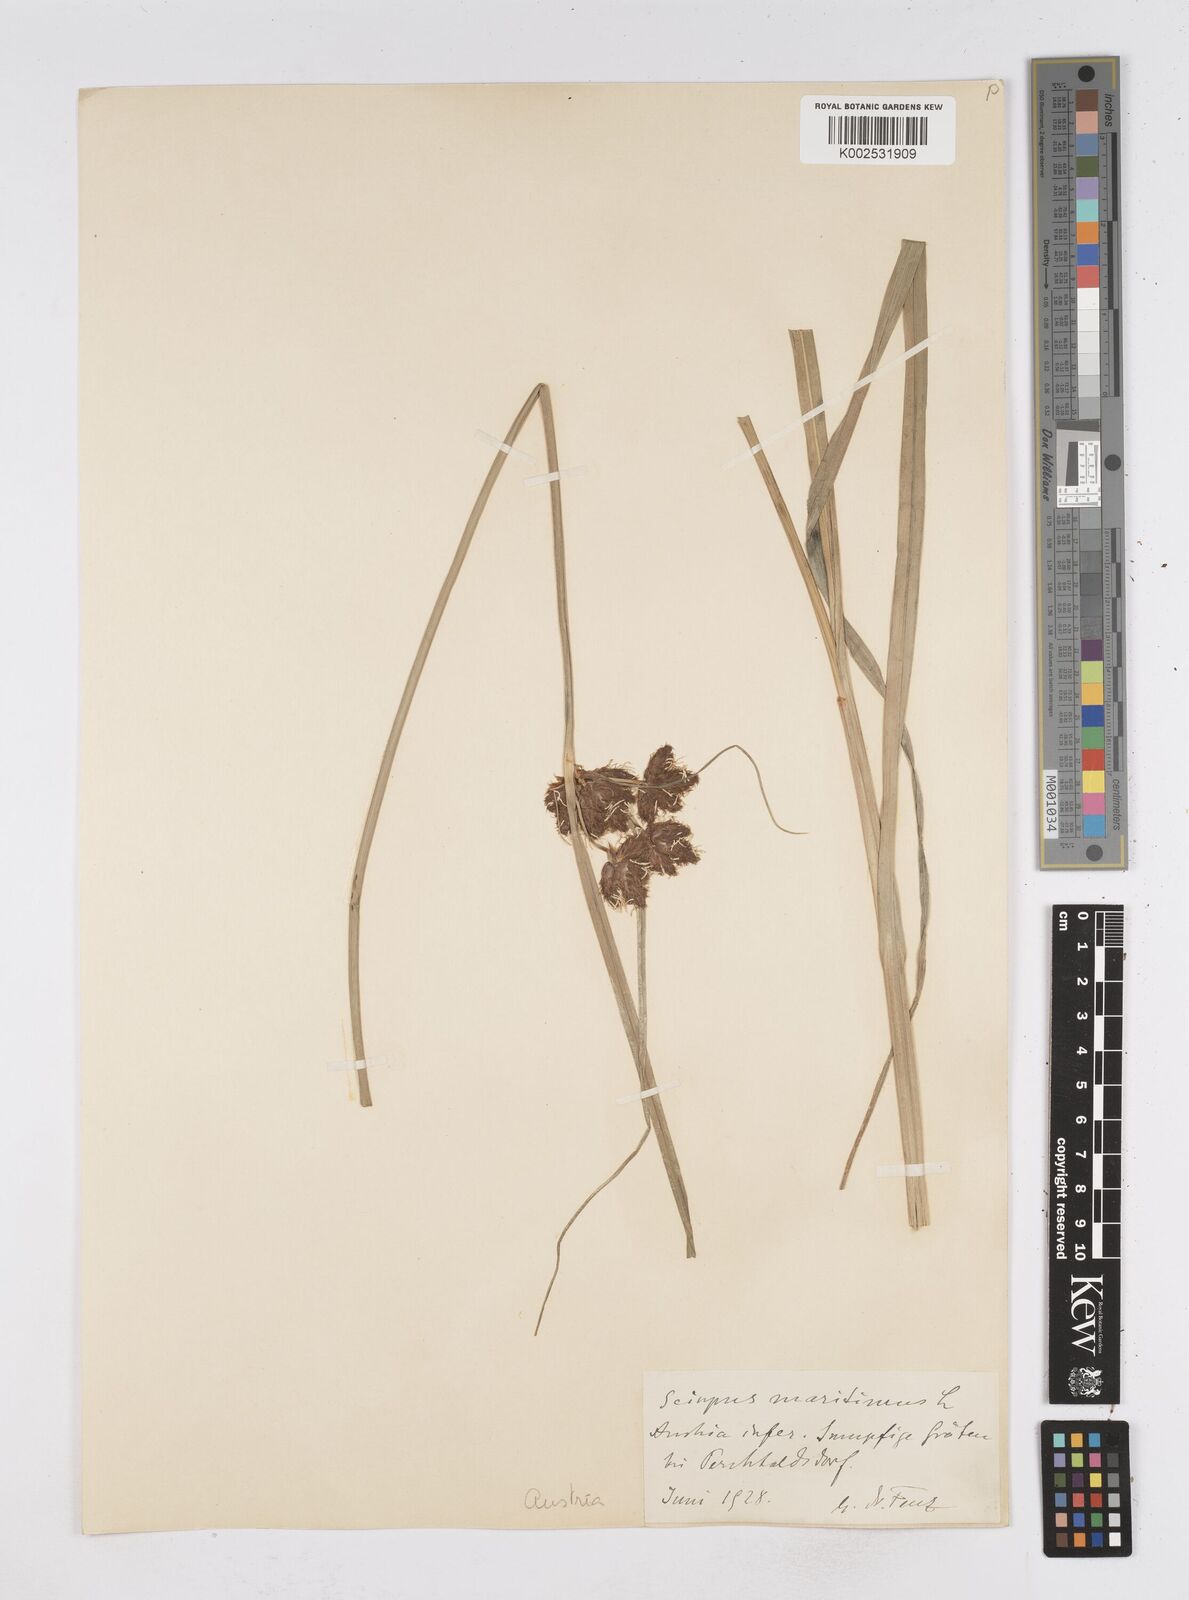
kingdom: Plantae
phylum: Tracheophyta
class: Liliopsida
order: Poales
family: Cyperaceae
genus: Bolboschoenus
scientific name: Bolboschoenus maritimus
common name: Sea club-rush
